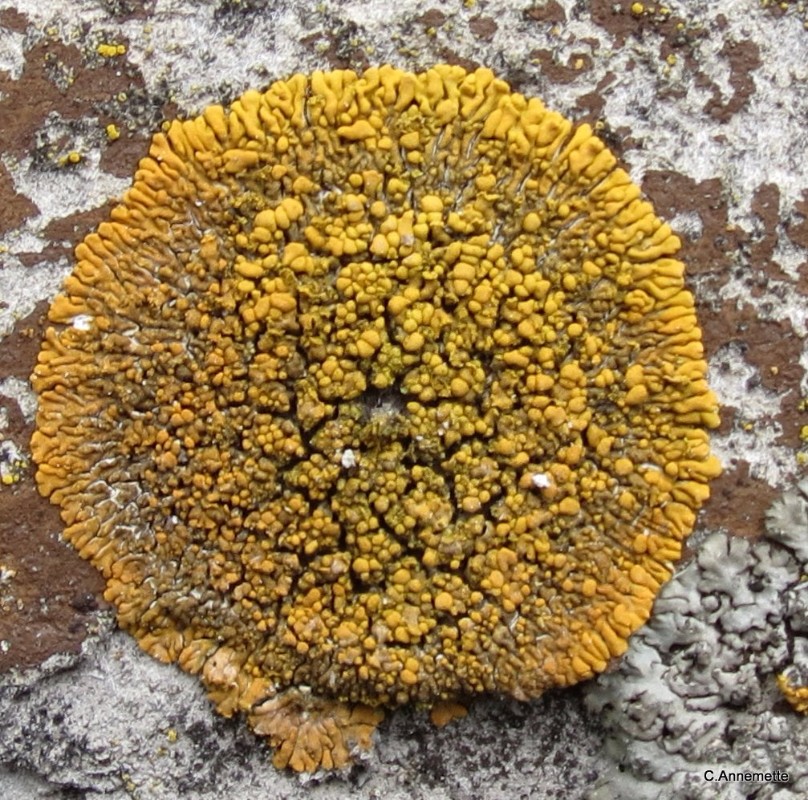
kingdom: Fungi
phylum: Ascomycota
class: Lecanoromycetes
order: Teloschistales
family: Teloschistaceae
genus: Calogaya
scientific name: Calogaya decipiens
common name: knudret orangelav
